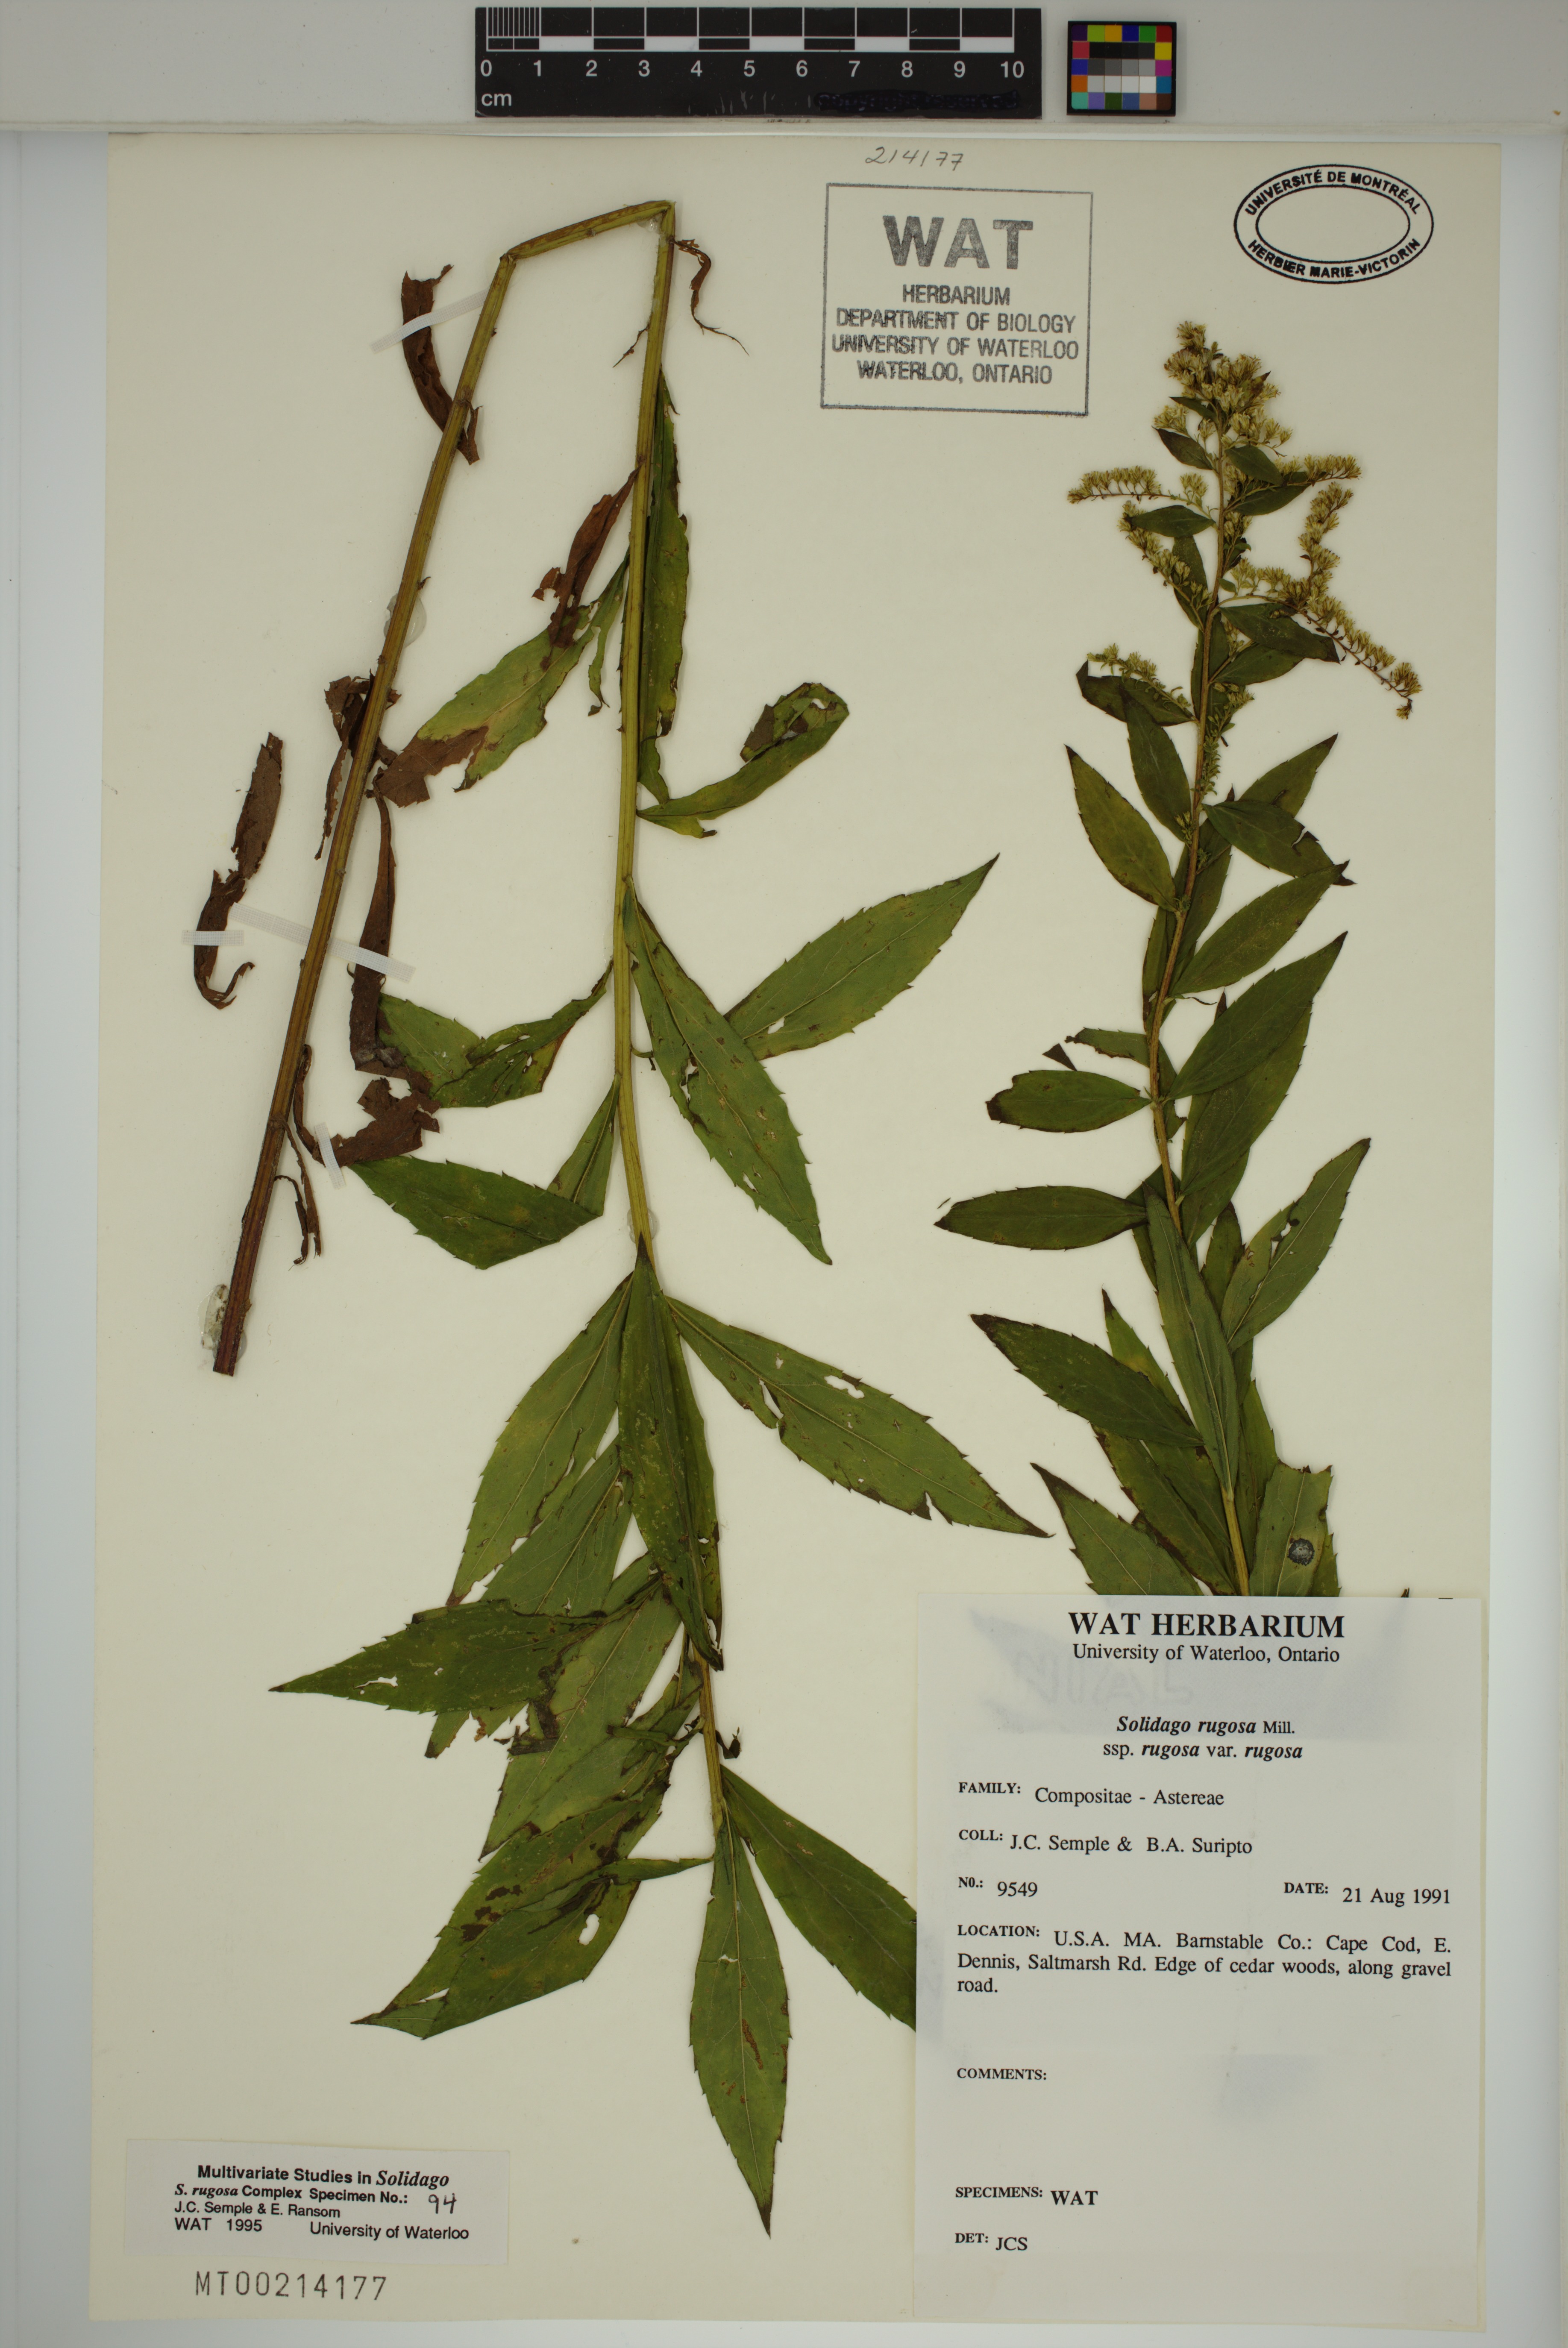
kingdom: Plantae
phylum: Tracheophyta
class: Magnoliopsida
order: Asterales
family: Asteraceae
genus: Solidago
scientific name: Solidago rugosa
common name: Rough-stemmed goldenrod
